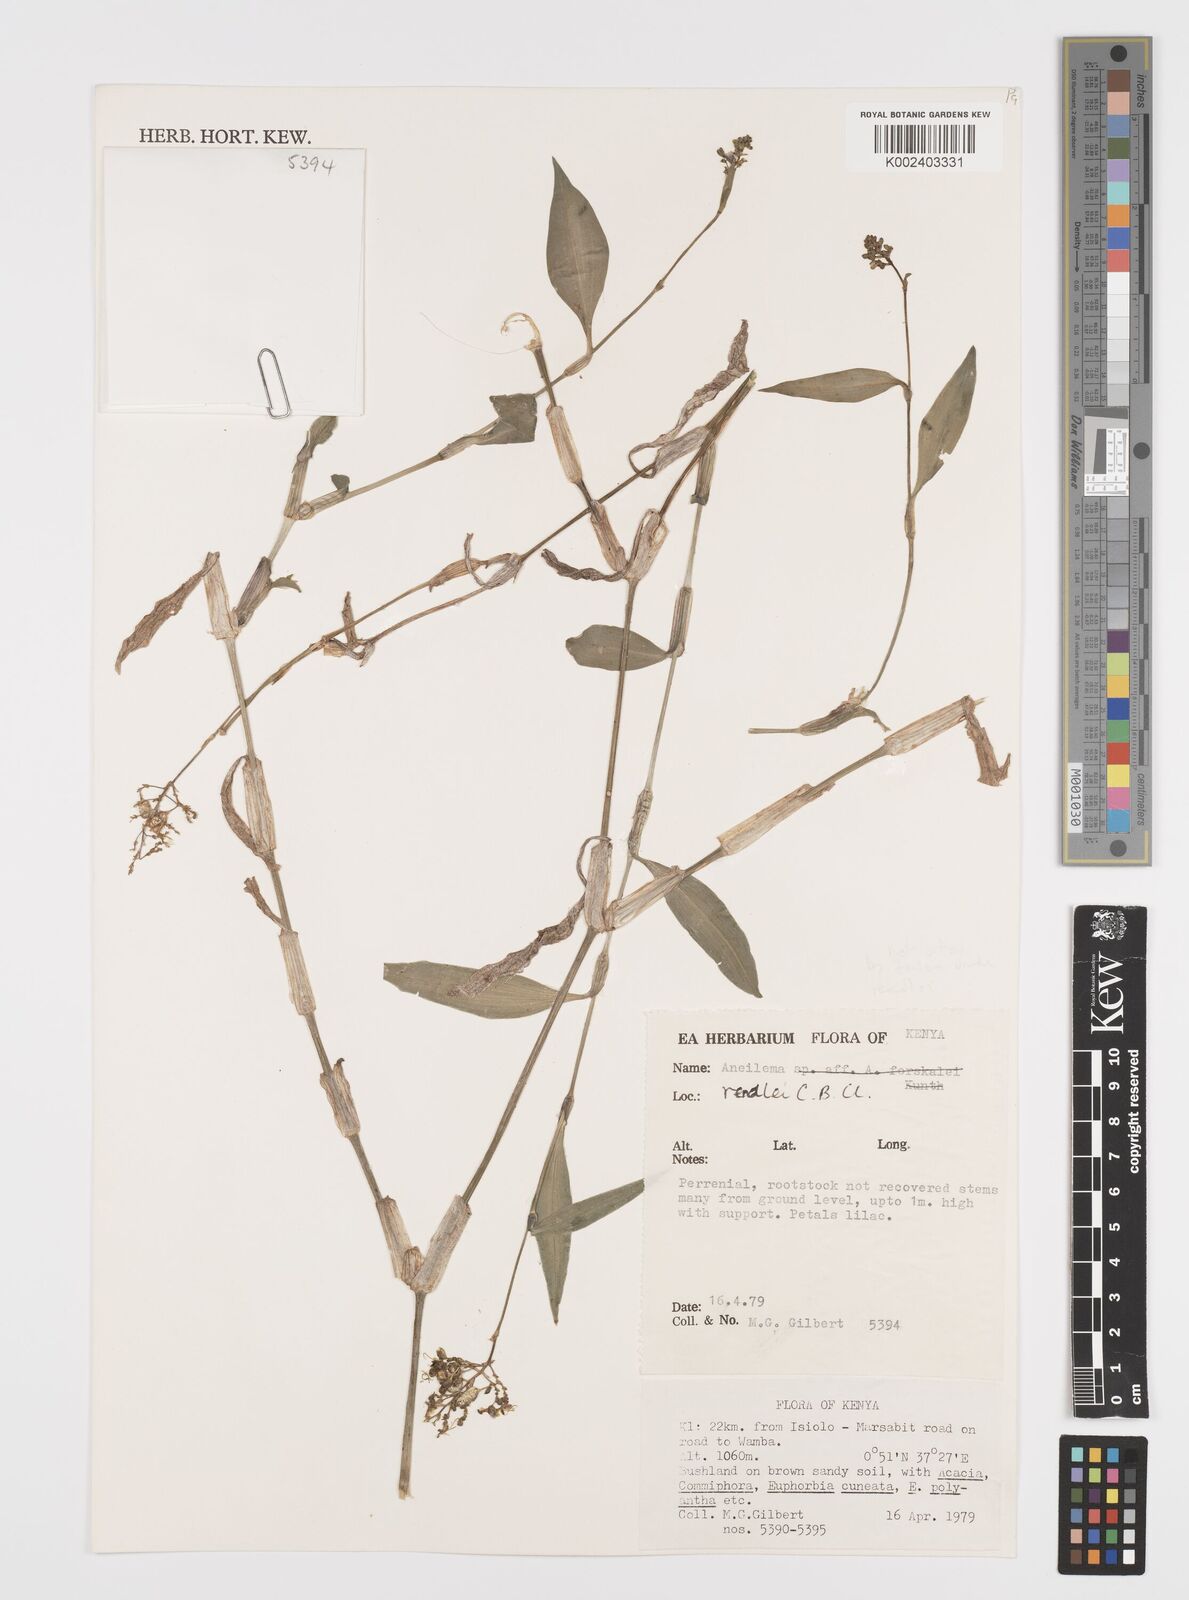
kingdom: Plantae
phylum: Tracheophyta
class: Liliopsida
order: Commelinales
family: Commelinaceae
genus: Aneilema
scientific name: Aneilema rendlei
